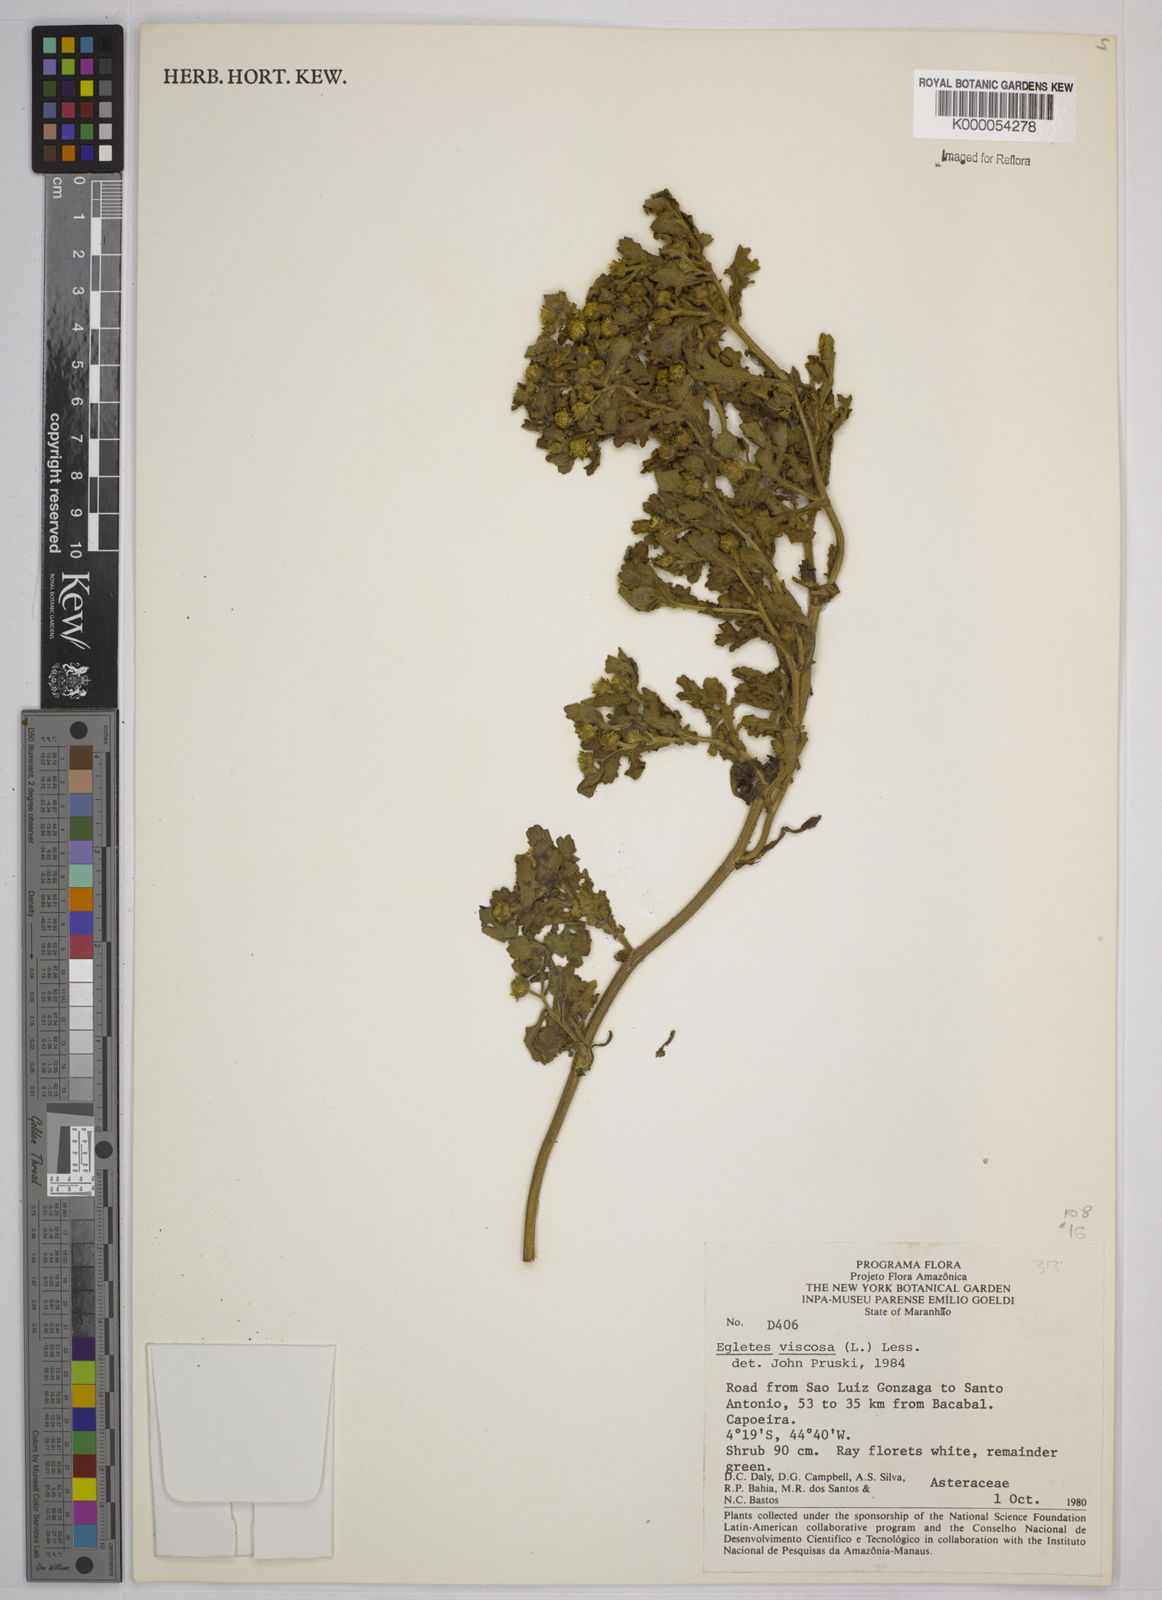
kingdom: Plantae
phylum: Tracheophyta
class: Magnoliopsida
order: Asterales
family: Asteraceae
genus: Egletes
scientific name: Egletes viscosa
